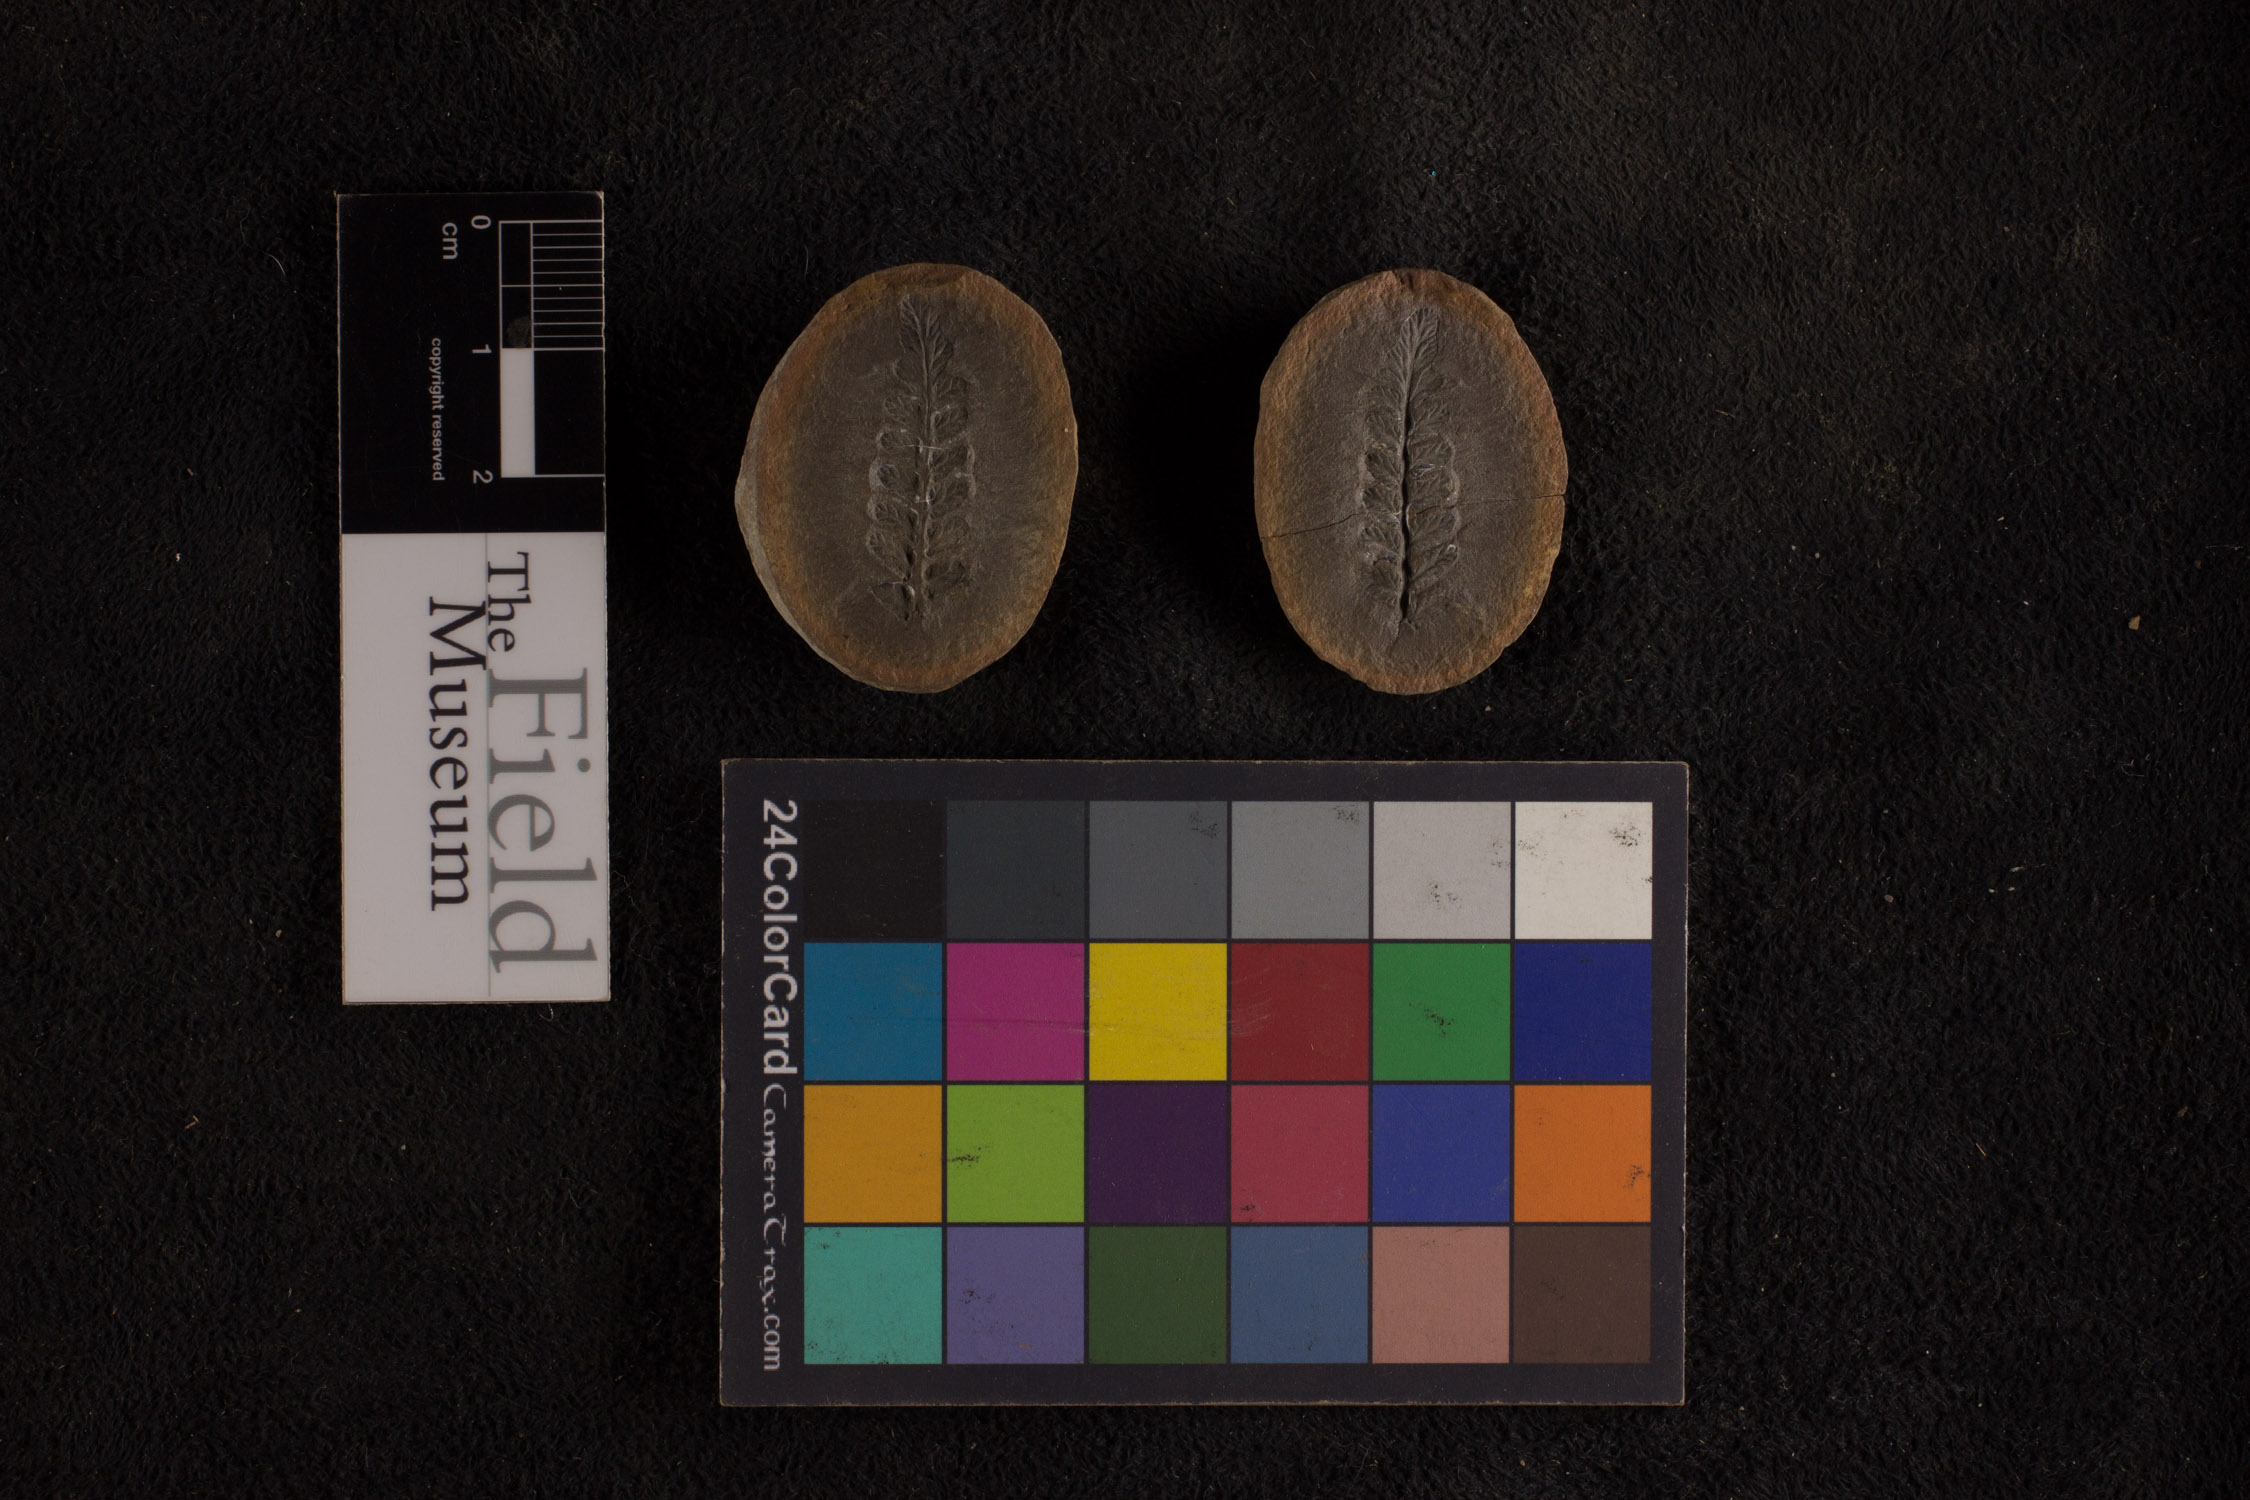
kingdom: Plantae
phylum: Tracheophyta
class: Polypodiopsida
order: Marattiales
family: Asterothecaceae
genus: Pecopteris
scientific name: Pecopteris
